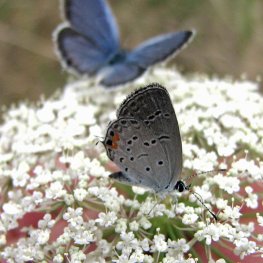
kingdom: Animalia
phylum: Arthropoda
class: Insecta
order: Lepidoptera
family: Lycaenidae
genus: Elkalyce
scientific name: Elkalyce comyntas
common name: Eastern Tailed-Blue
